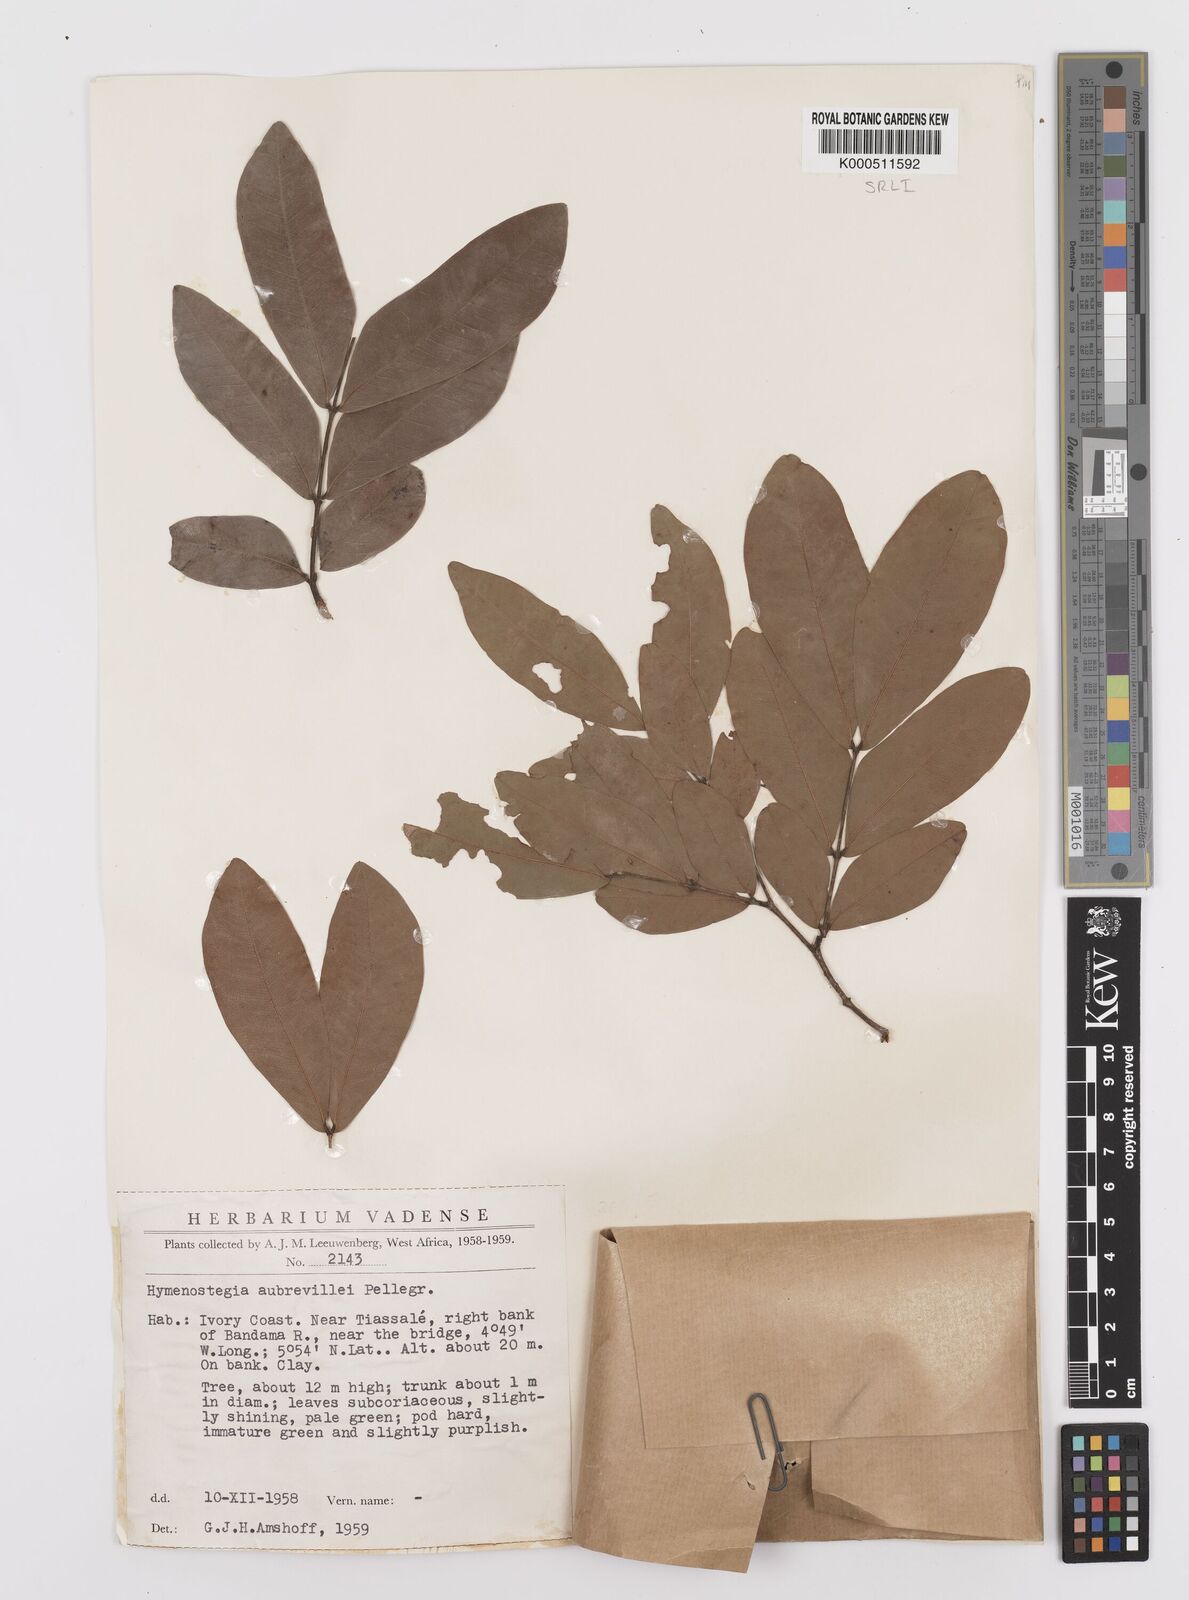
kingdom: Plantae
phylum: Tracheophyta
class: Magnoliopsida
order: Fabales
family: Fabaceae
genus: Hymenostegia
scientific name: Hymenostegia aubrevillei
